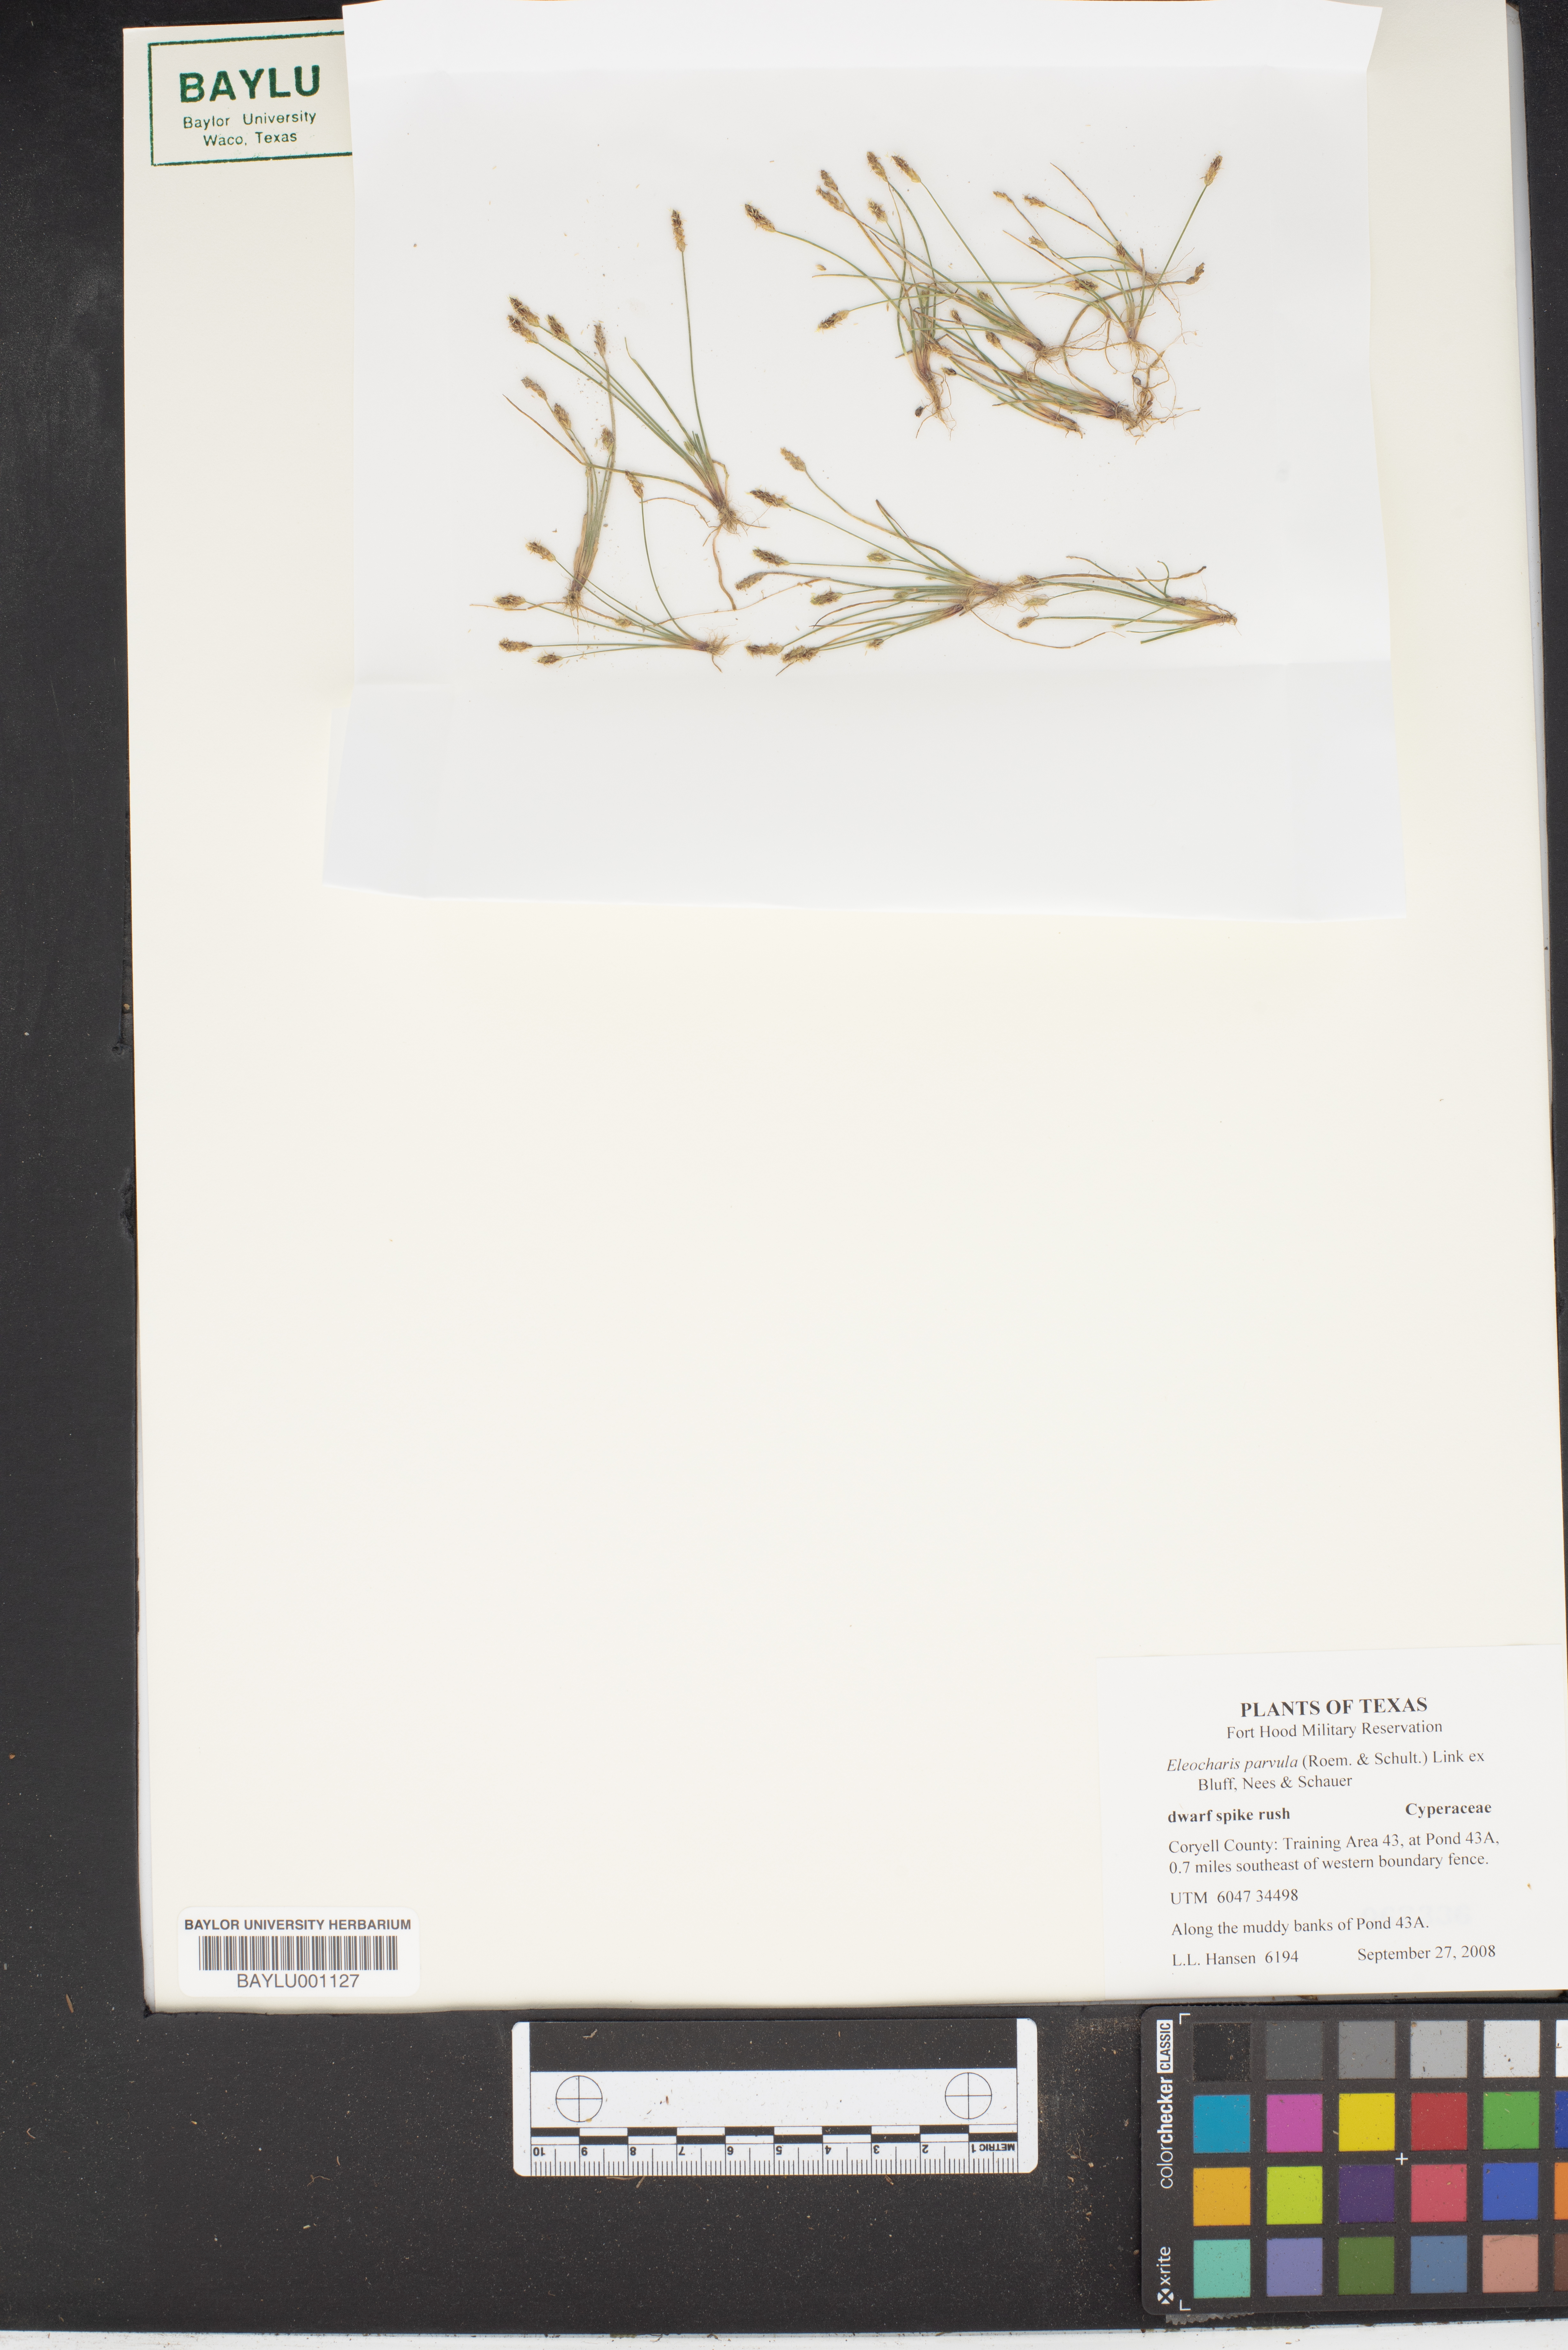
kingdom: Plantae
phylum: Tracheophyta
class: Liliopsida
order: Poales
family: Cyperaceae
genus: Eleocharis
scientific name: Eleocharis parvula
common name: Dwarf spike-rush
